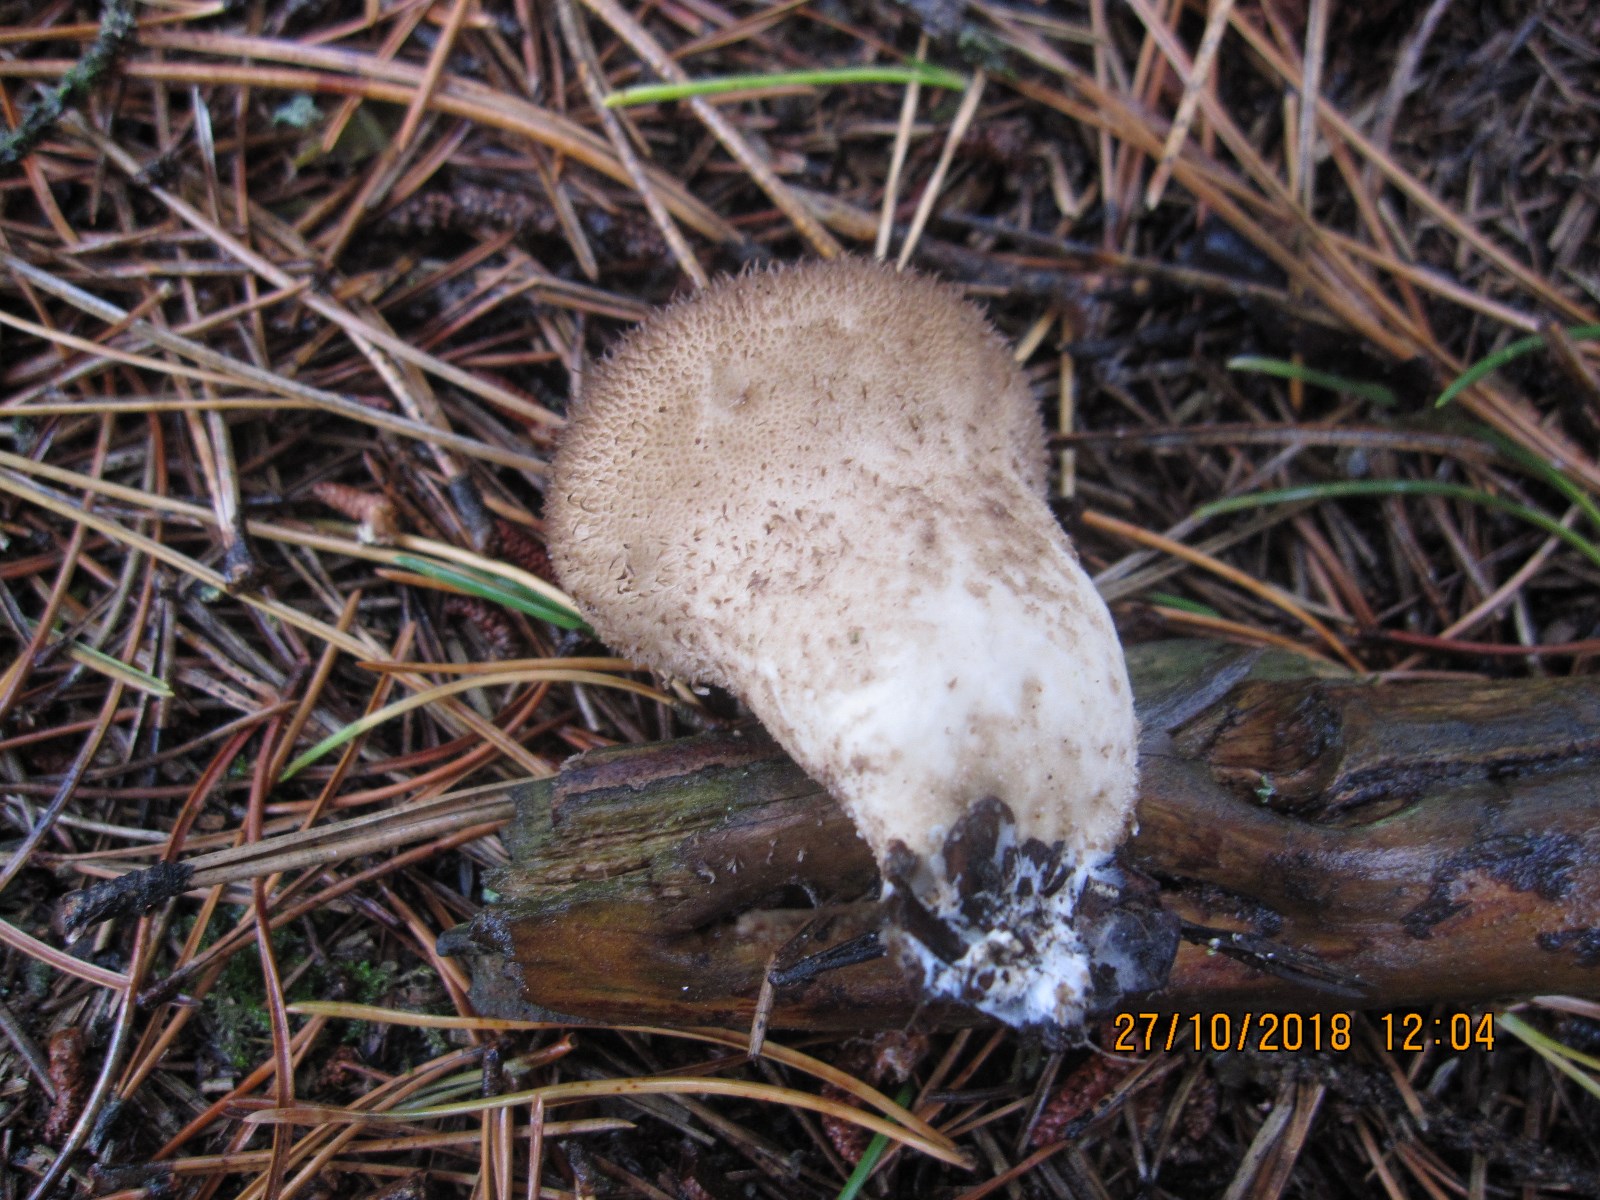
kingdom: Fungi
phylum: Basidiomycota
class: Agaricomycetes
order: Agaricales
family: Lycoperdaceae
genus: Lycoperdon
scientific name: Lycoperdon nigrescens
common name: sortagtig støvbold
